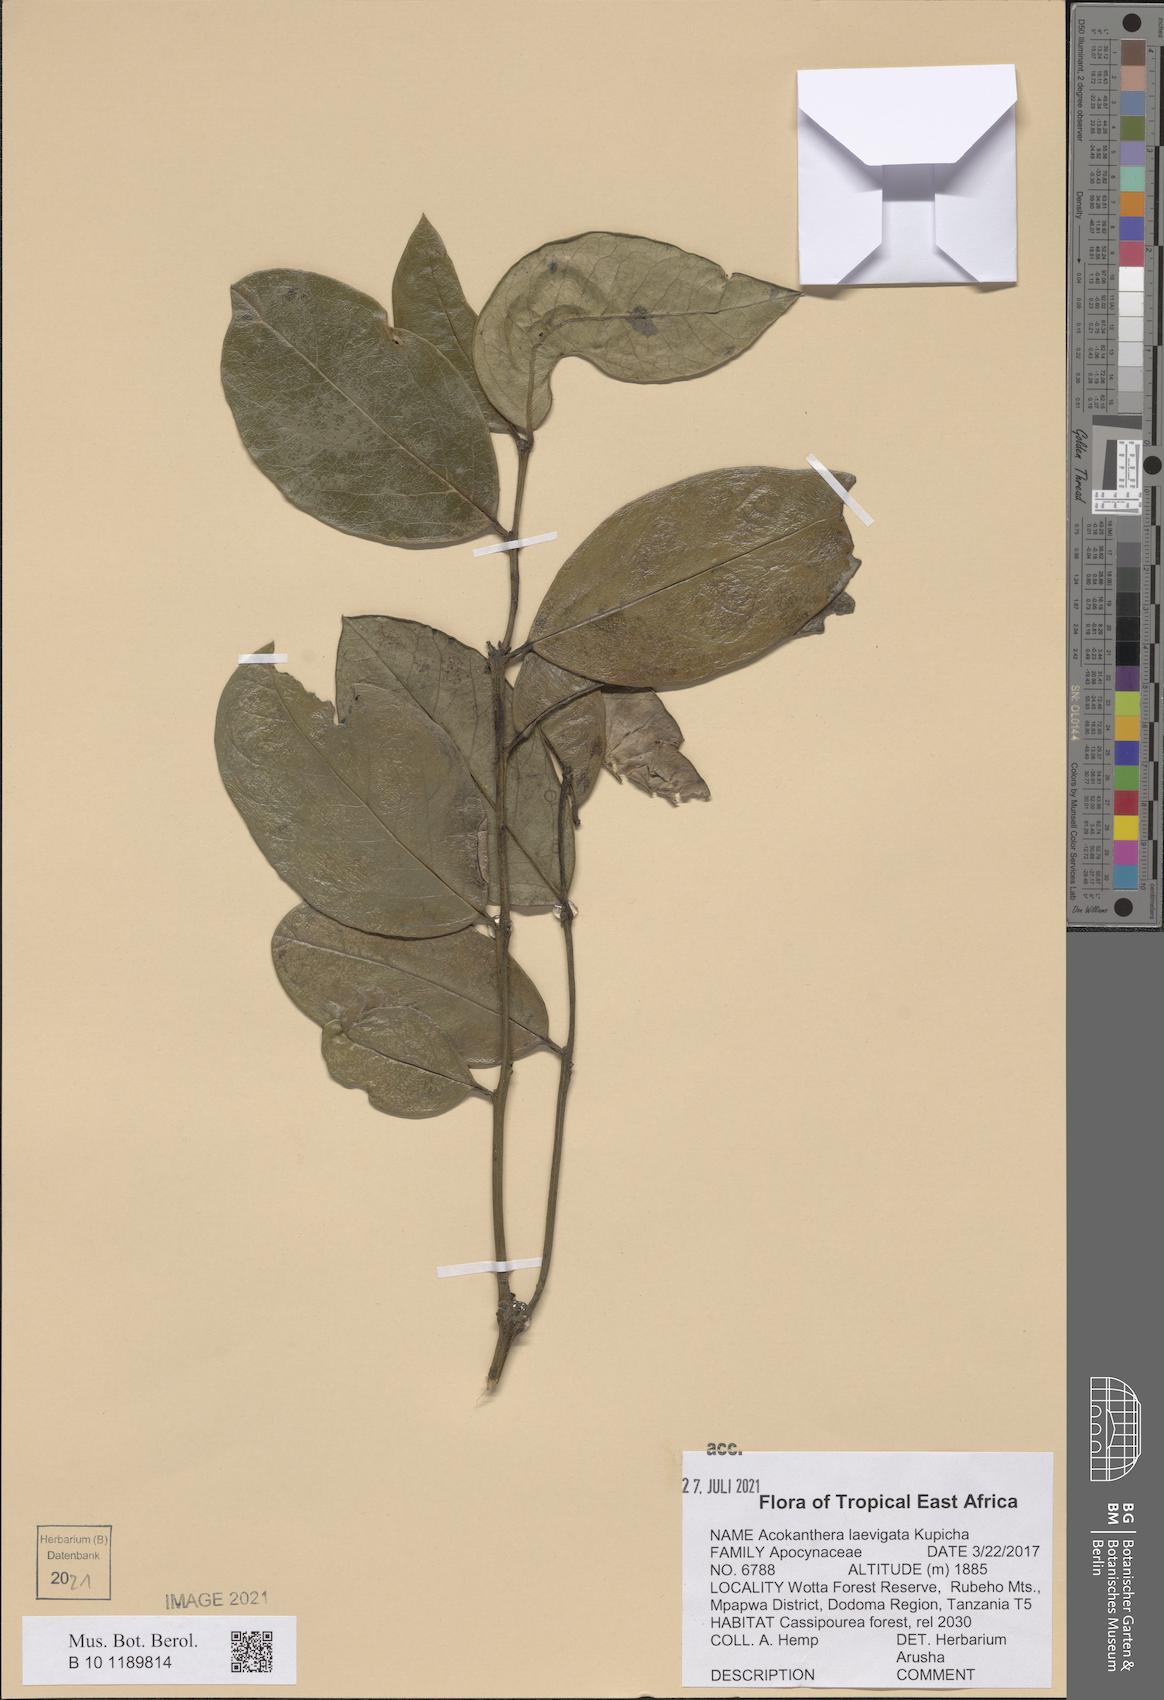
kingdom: Plantae
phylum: Tracheophyta
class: Magnoliopsida
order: Gentianales
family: Apocynaceae
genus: Acokanthera
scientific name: Acokanthera laevigata
